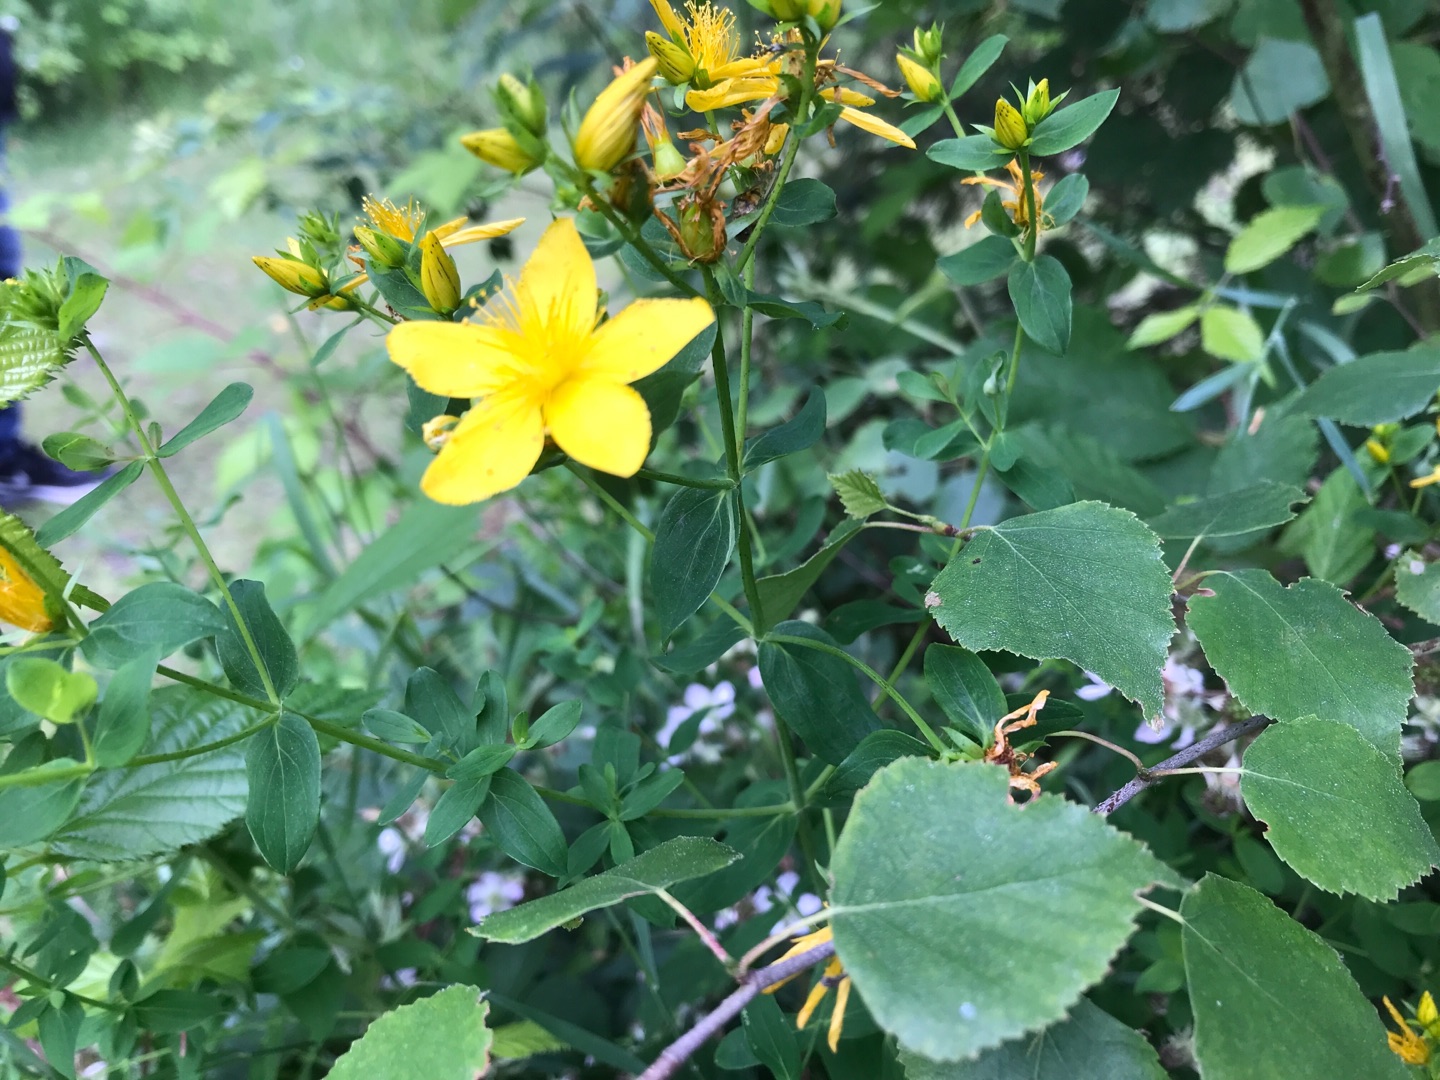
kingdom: Plantae
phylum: Tracheophyta
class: Magnoliopsida
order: Malpighiales
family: Hypericaceae
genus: Hypericum
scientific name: Hypericum perforatum
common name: Prikbladet perikon
